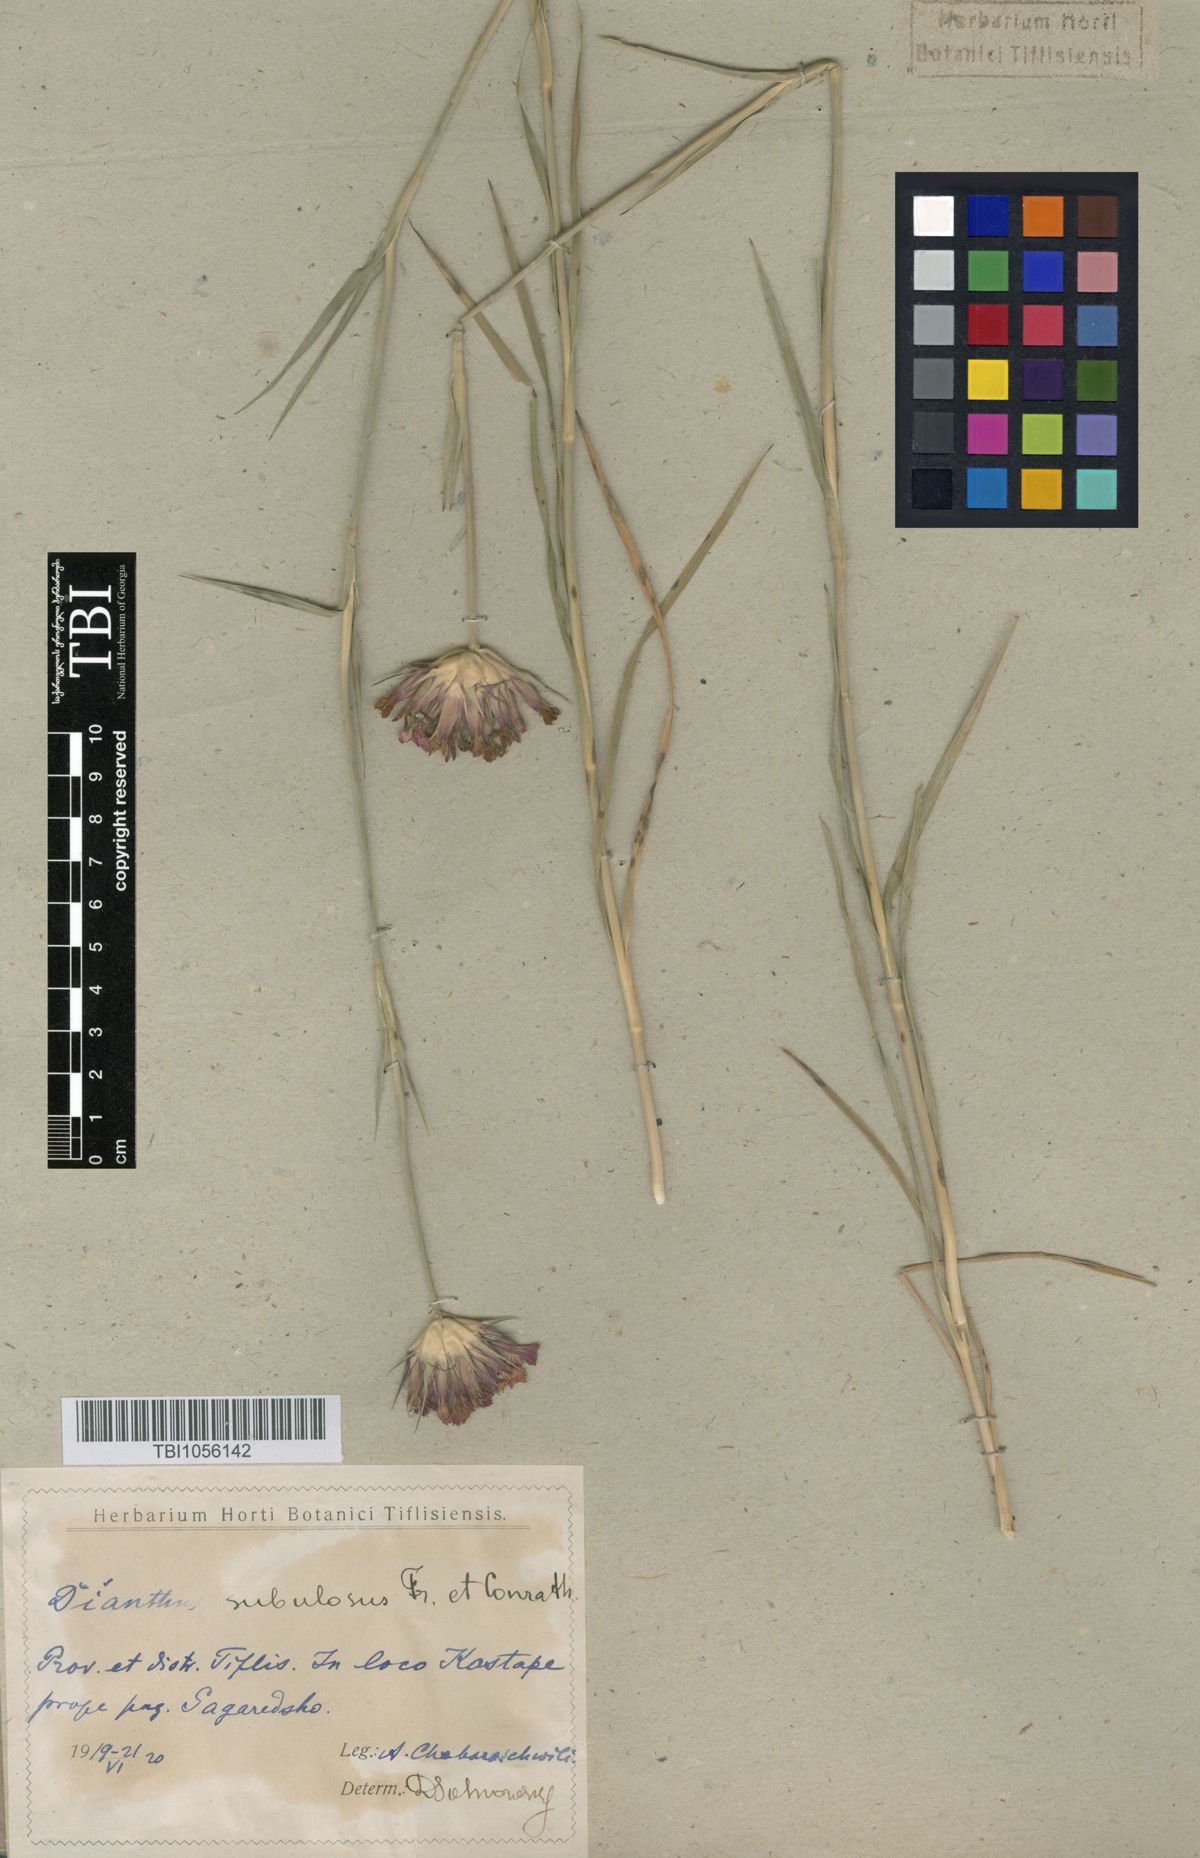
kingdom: Plantae
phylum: Tracheophyta
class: Magnoliopsida
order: Caryophyllales
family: Caryophyllaceae
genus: Dianthus
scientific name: Dianthus subulosus
